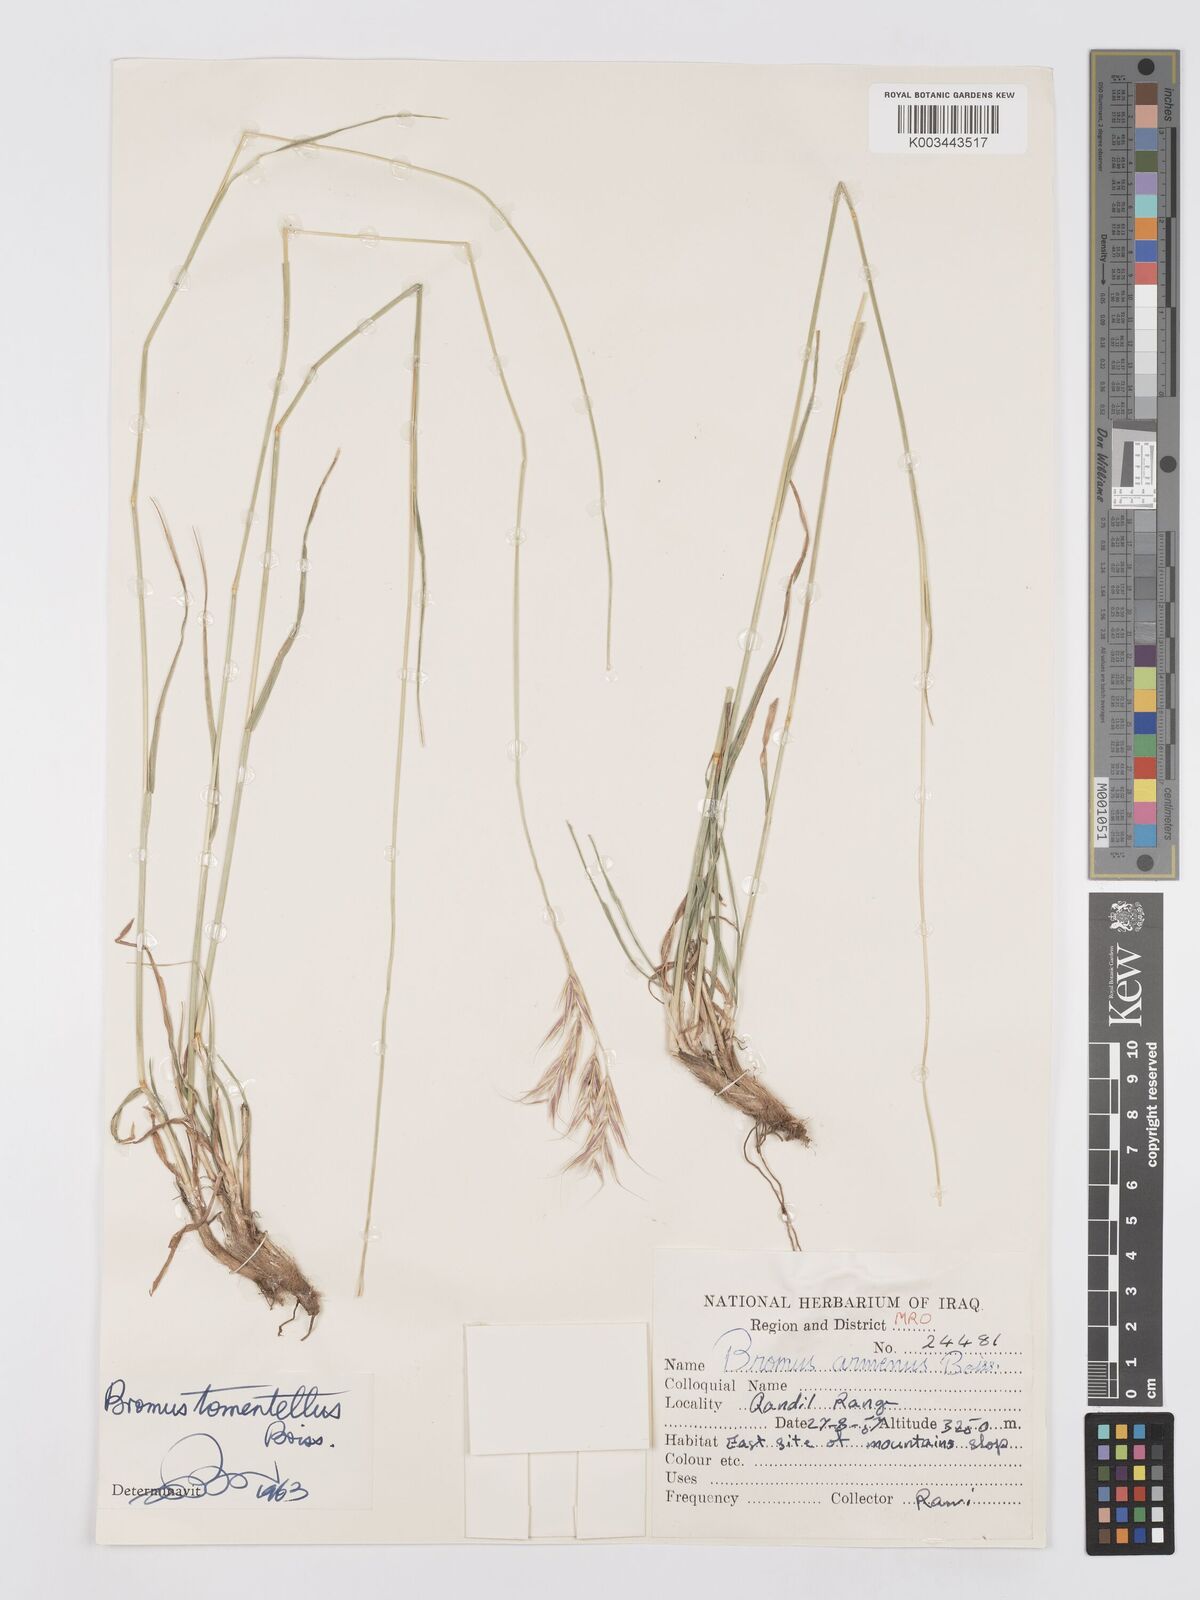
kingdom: Plantae
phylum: Tracheophyta
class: Liliopsida
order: Poales
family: Poaceae
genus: Bromus
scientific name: Bromus tomentellus
